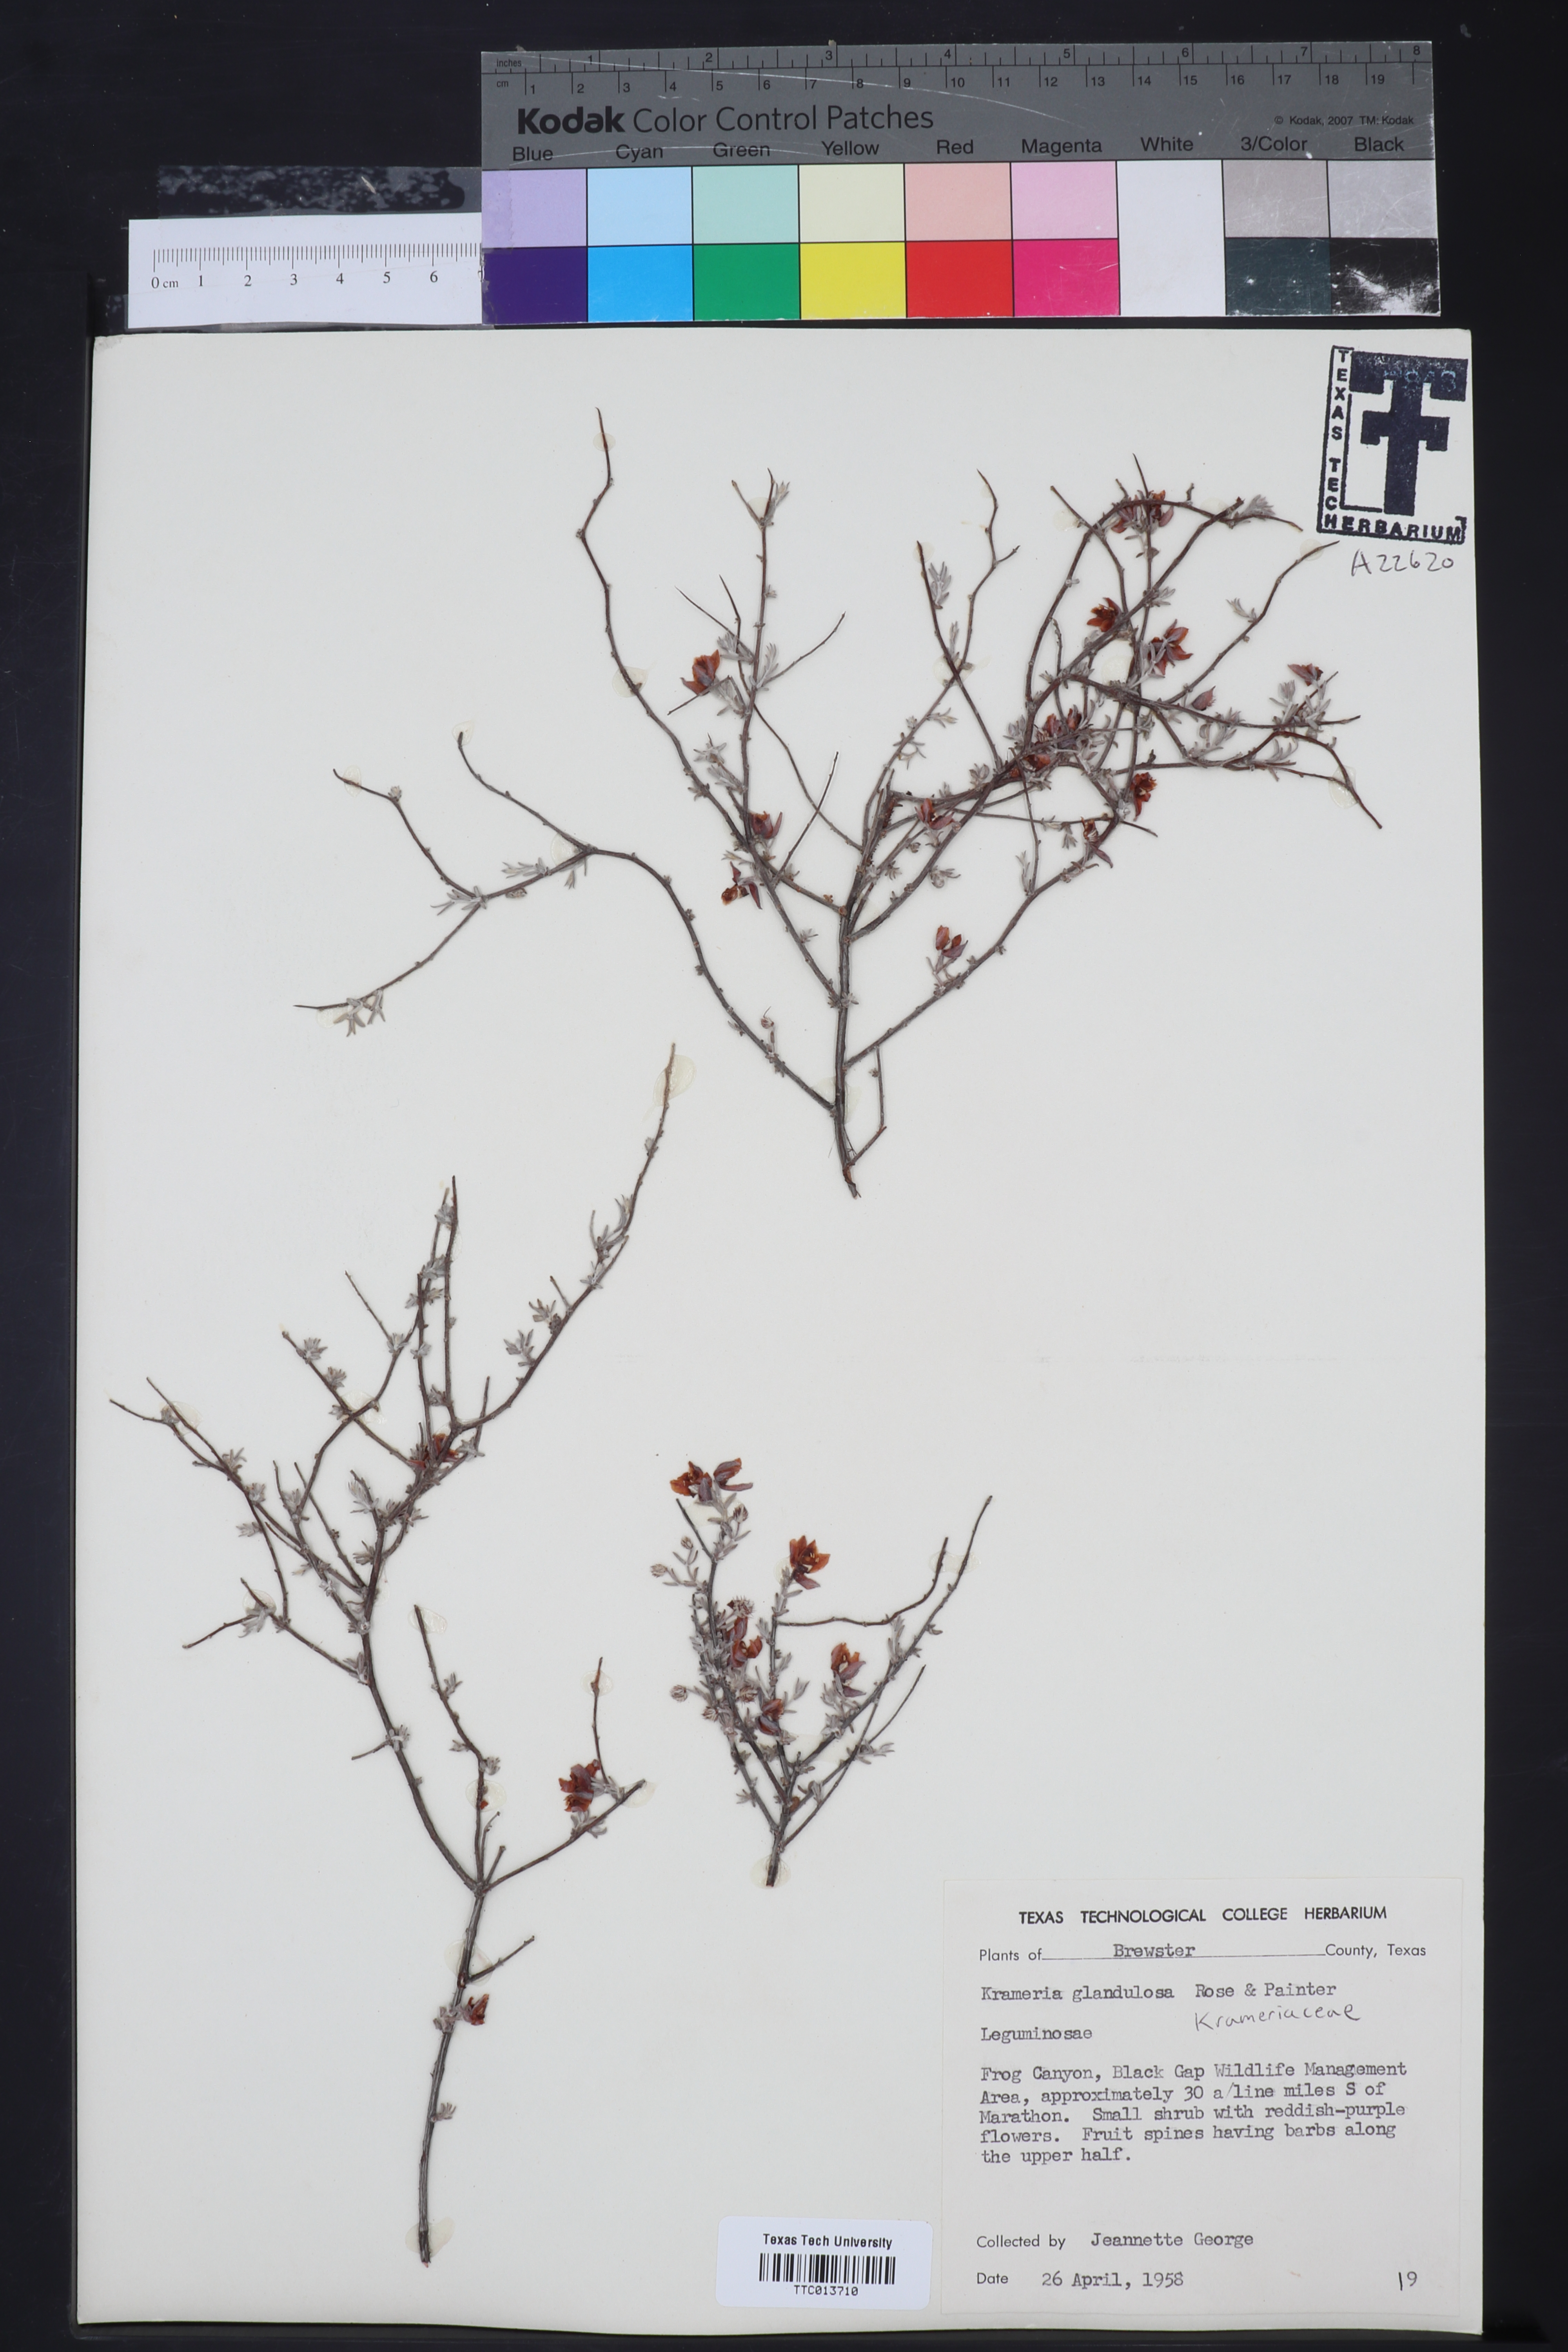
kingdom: Plantae
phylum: Tracheophyta
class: Magnoliopsida
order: Zygophyllales
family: Krameriaceae
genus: Krameria
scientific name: Krameria erecta
